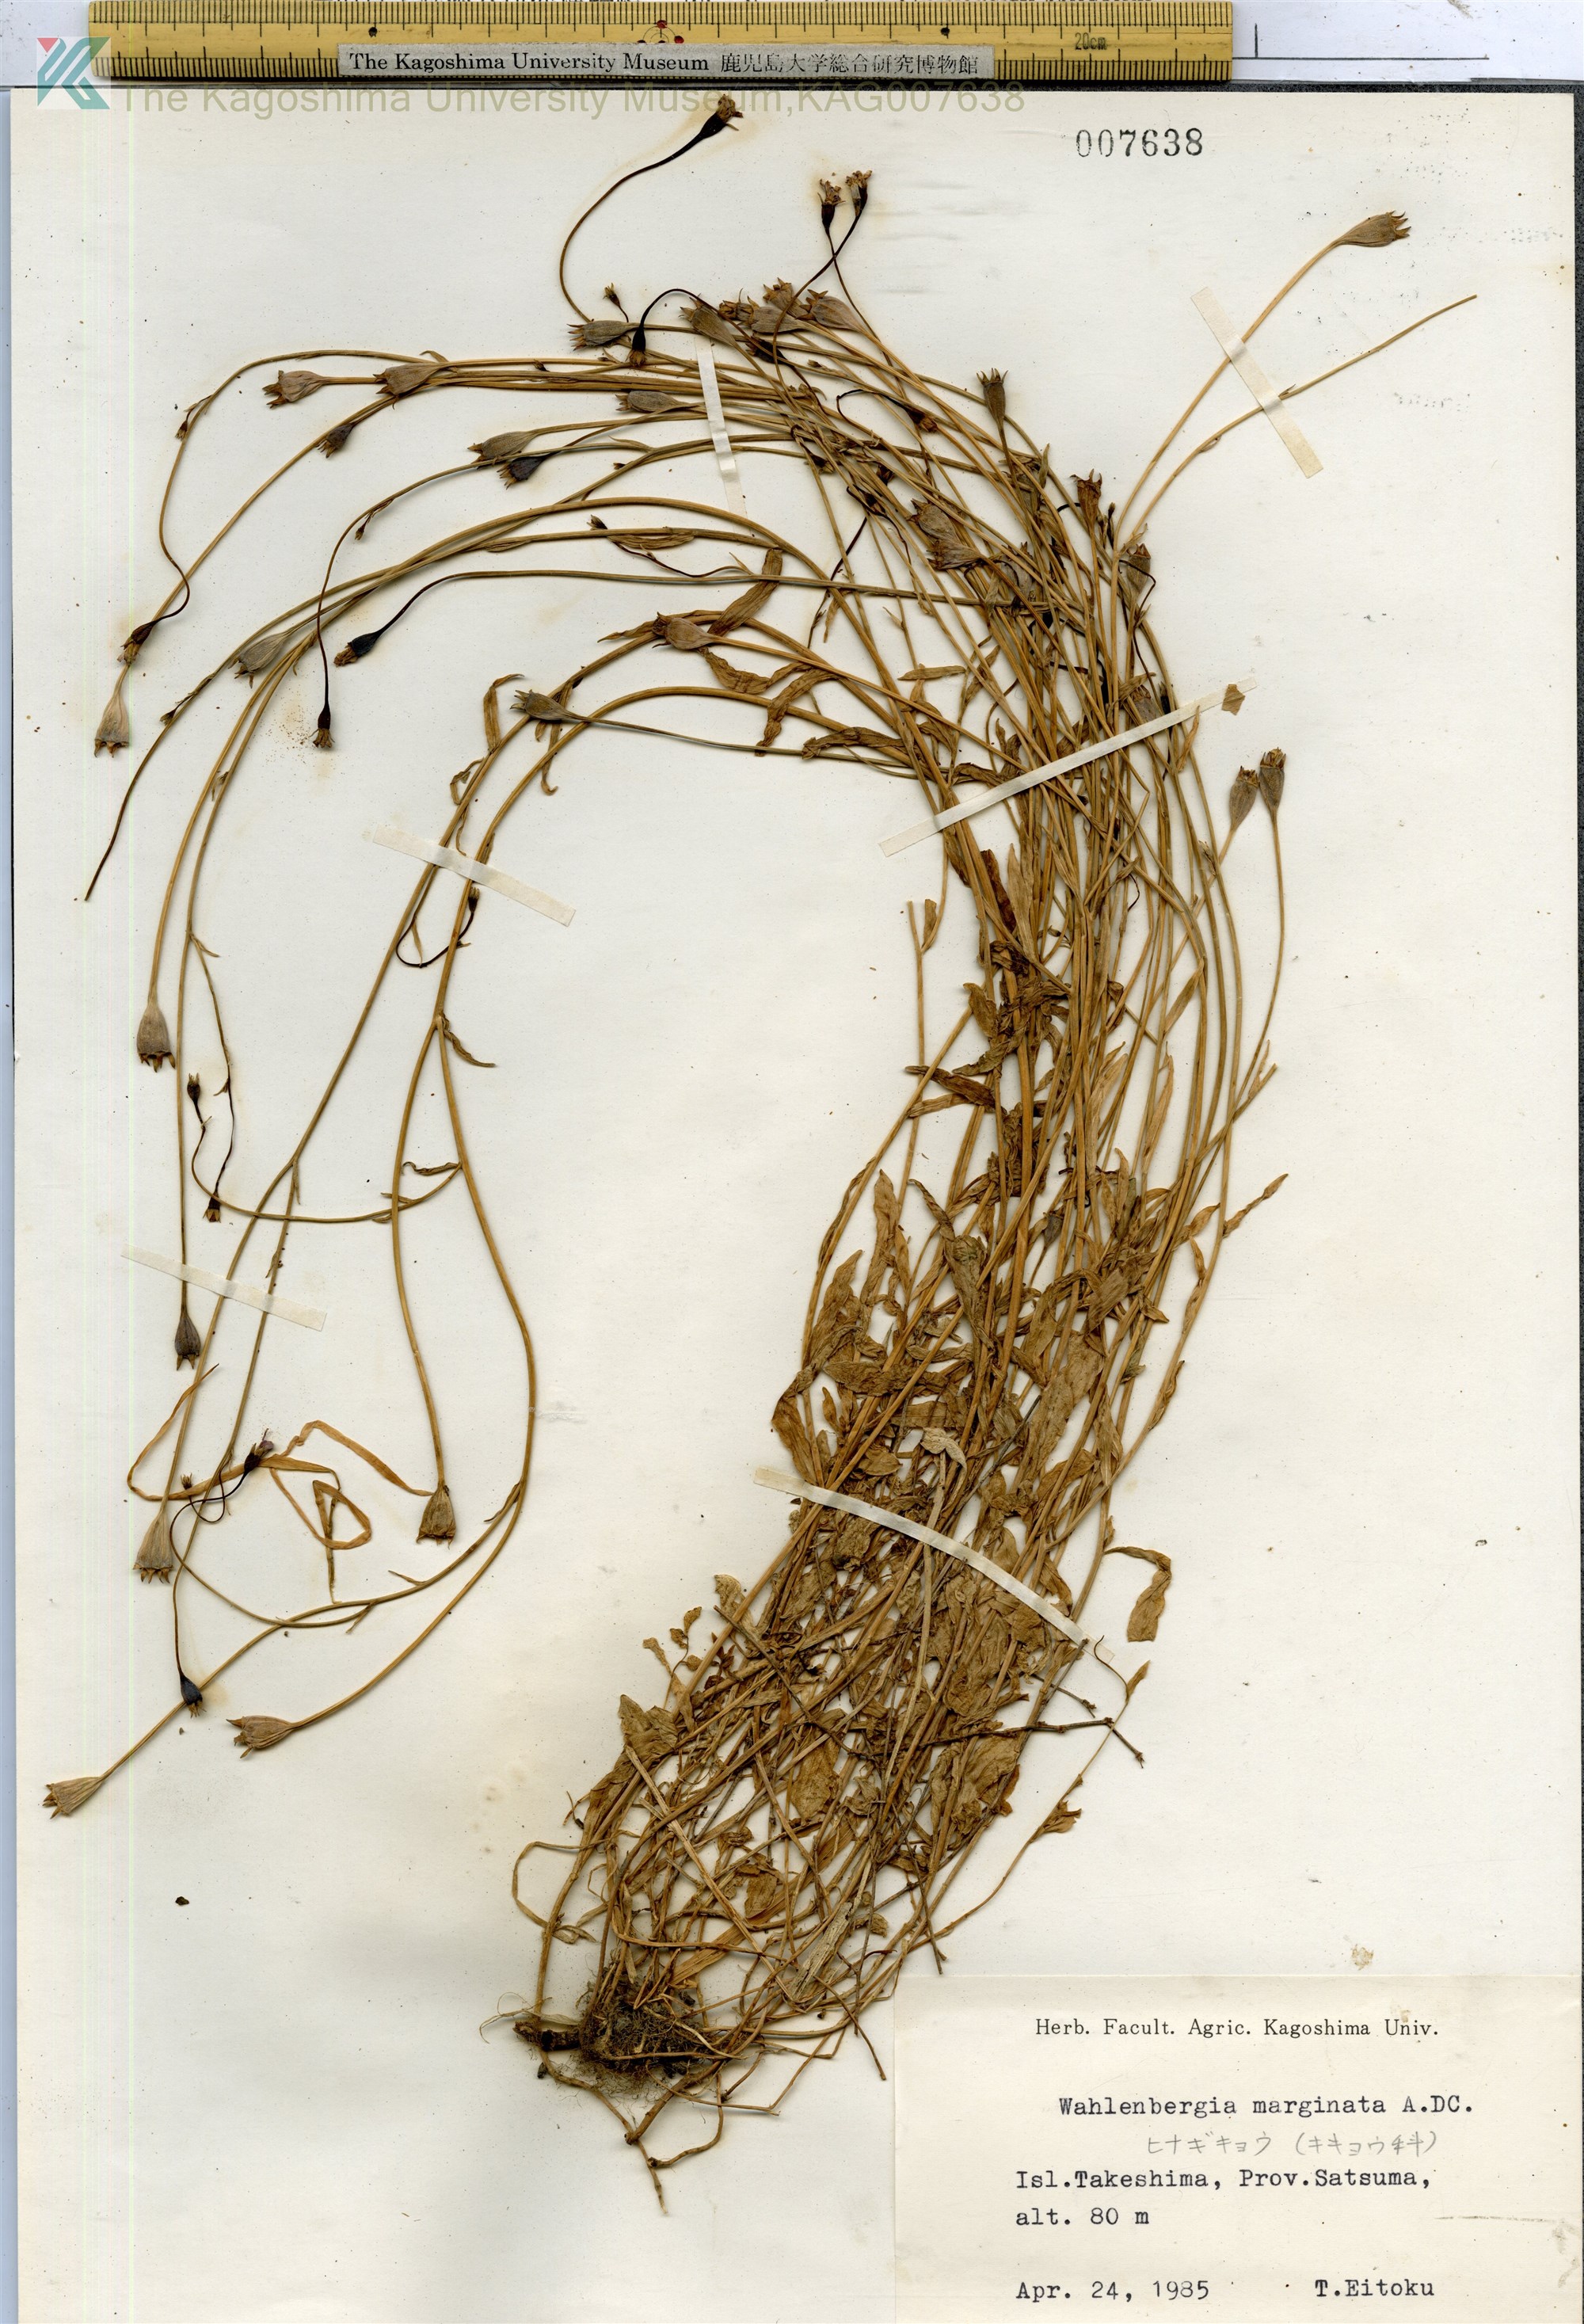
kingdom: Plantae
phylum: Tracheophyta
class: Magnoliopsida
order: Asterales
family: Campanulaceae
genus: Wahlenbergia
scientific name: Wahlenbergia marginata
